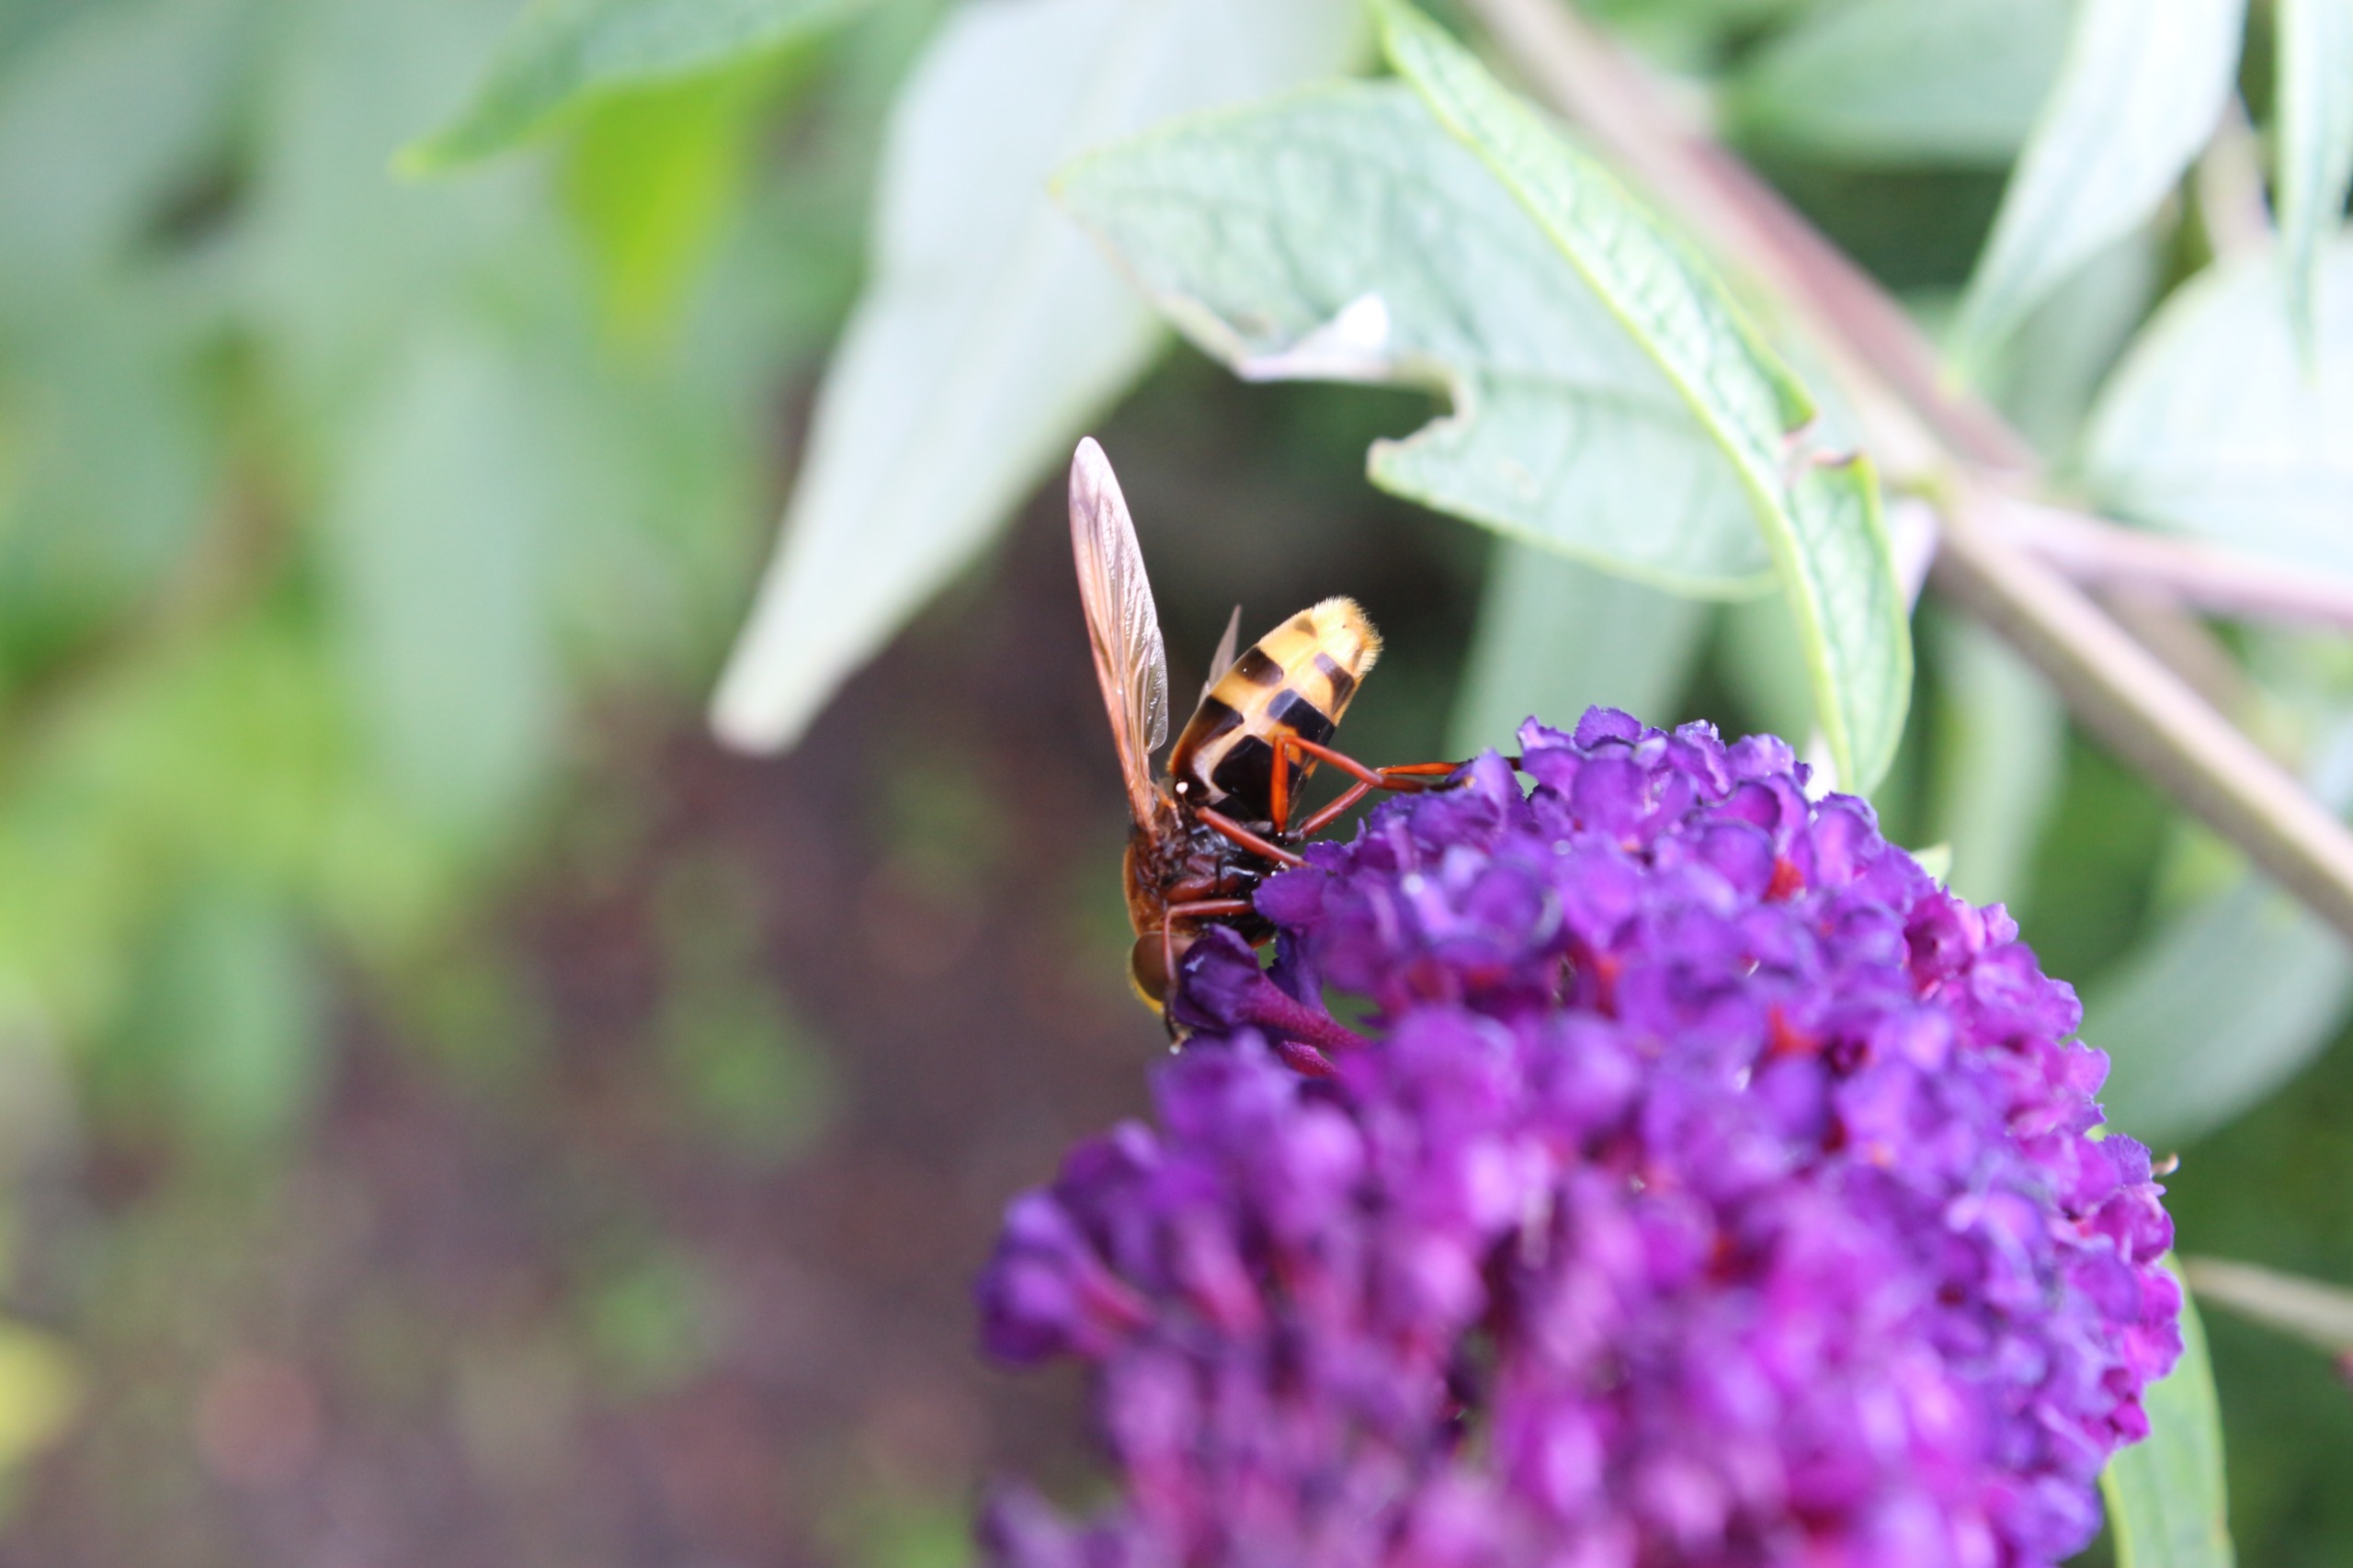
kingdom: Animalia
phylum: Arthropoda
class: Insecta
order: Diptera
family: Syrphidae
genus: Volucella
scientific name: Volucella zonaria
